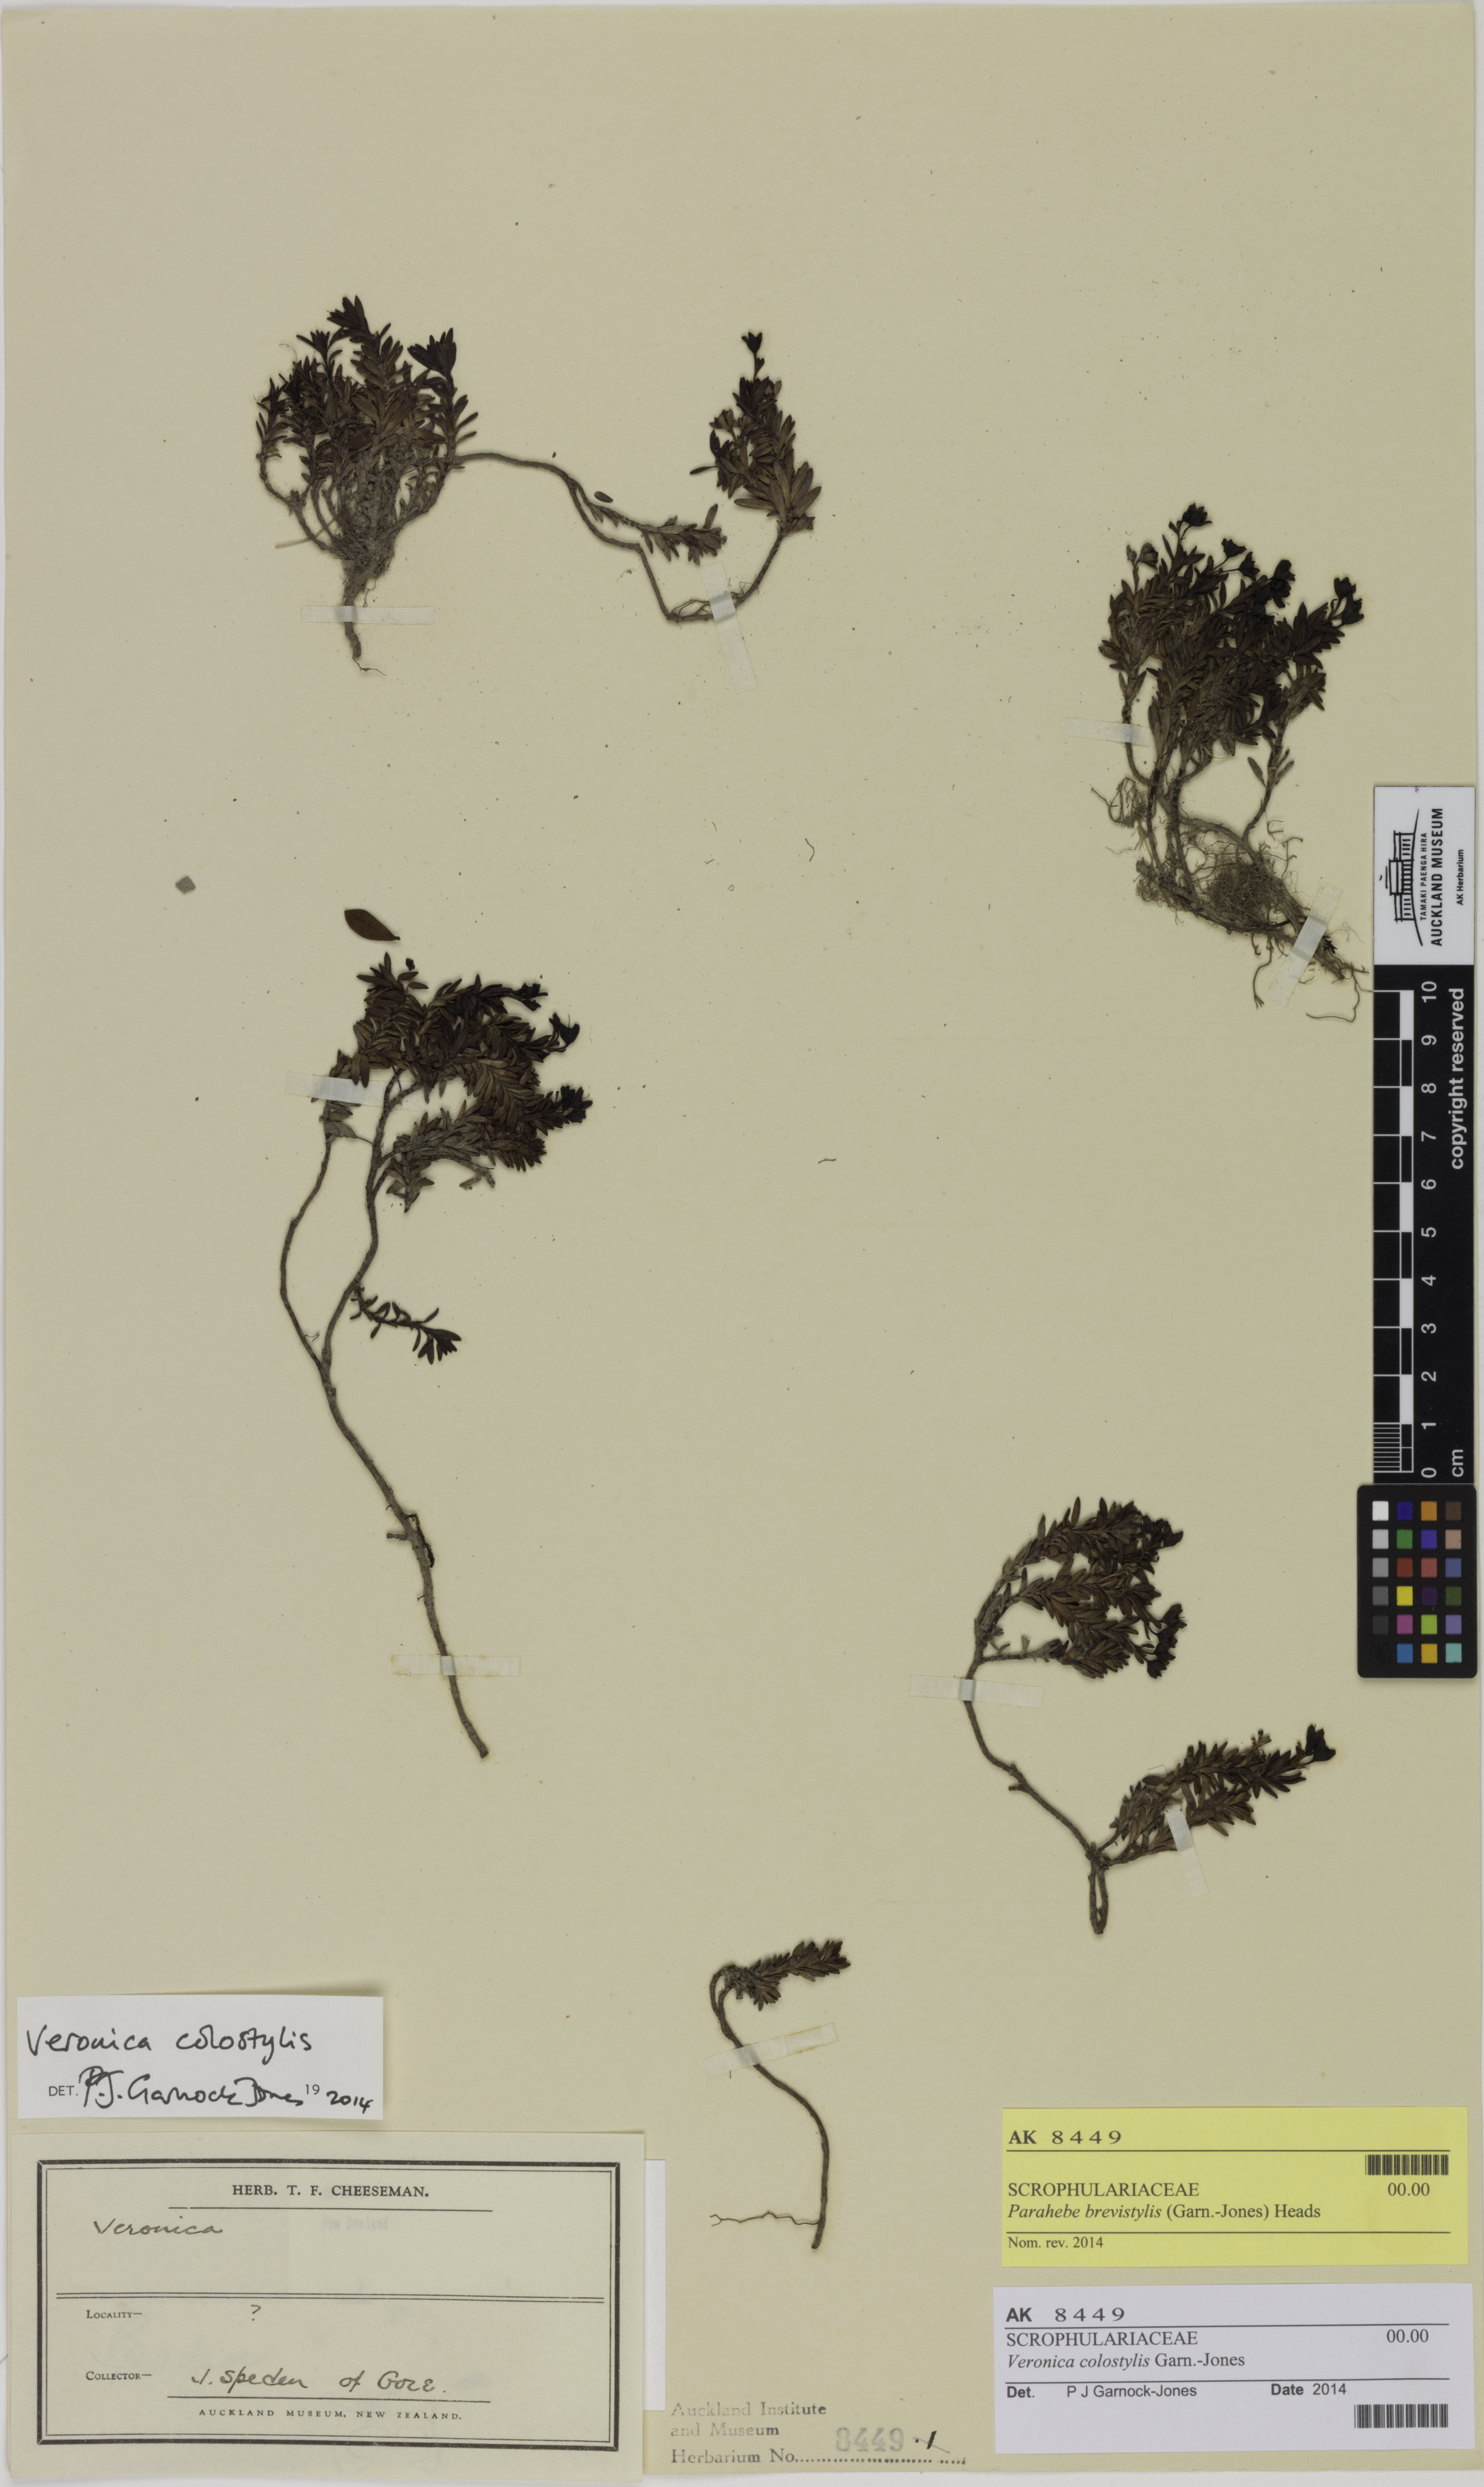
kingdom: Plantae
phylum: Tracheophyta
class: Magnoliopsida
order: Lamiales
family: Plantaginaceae
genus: Veronica
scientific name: Veronica colostylis
